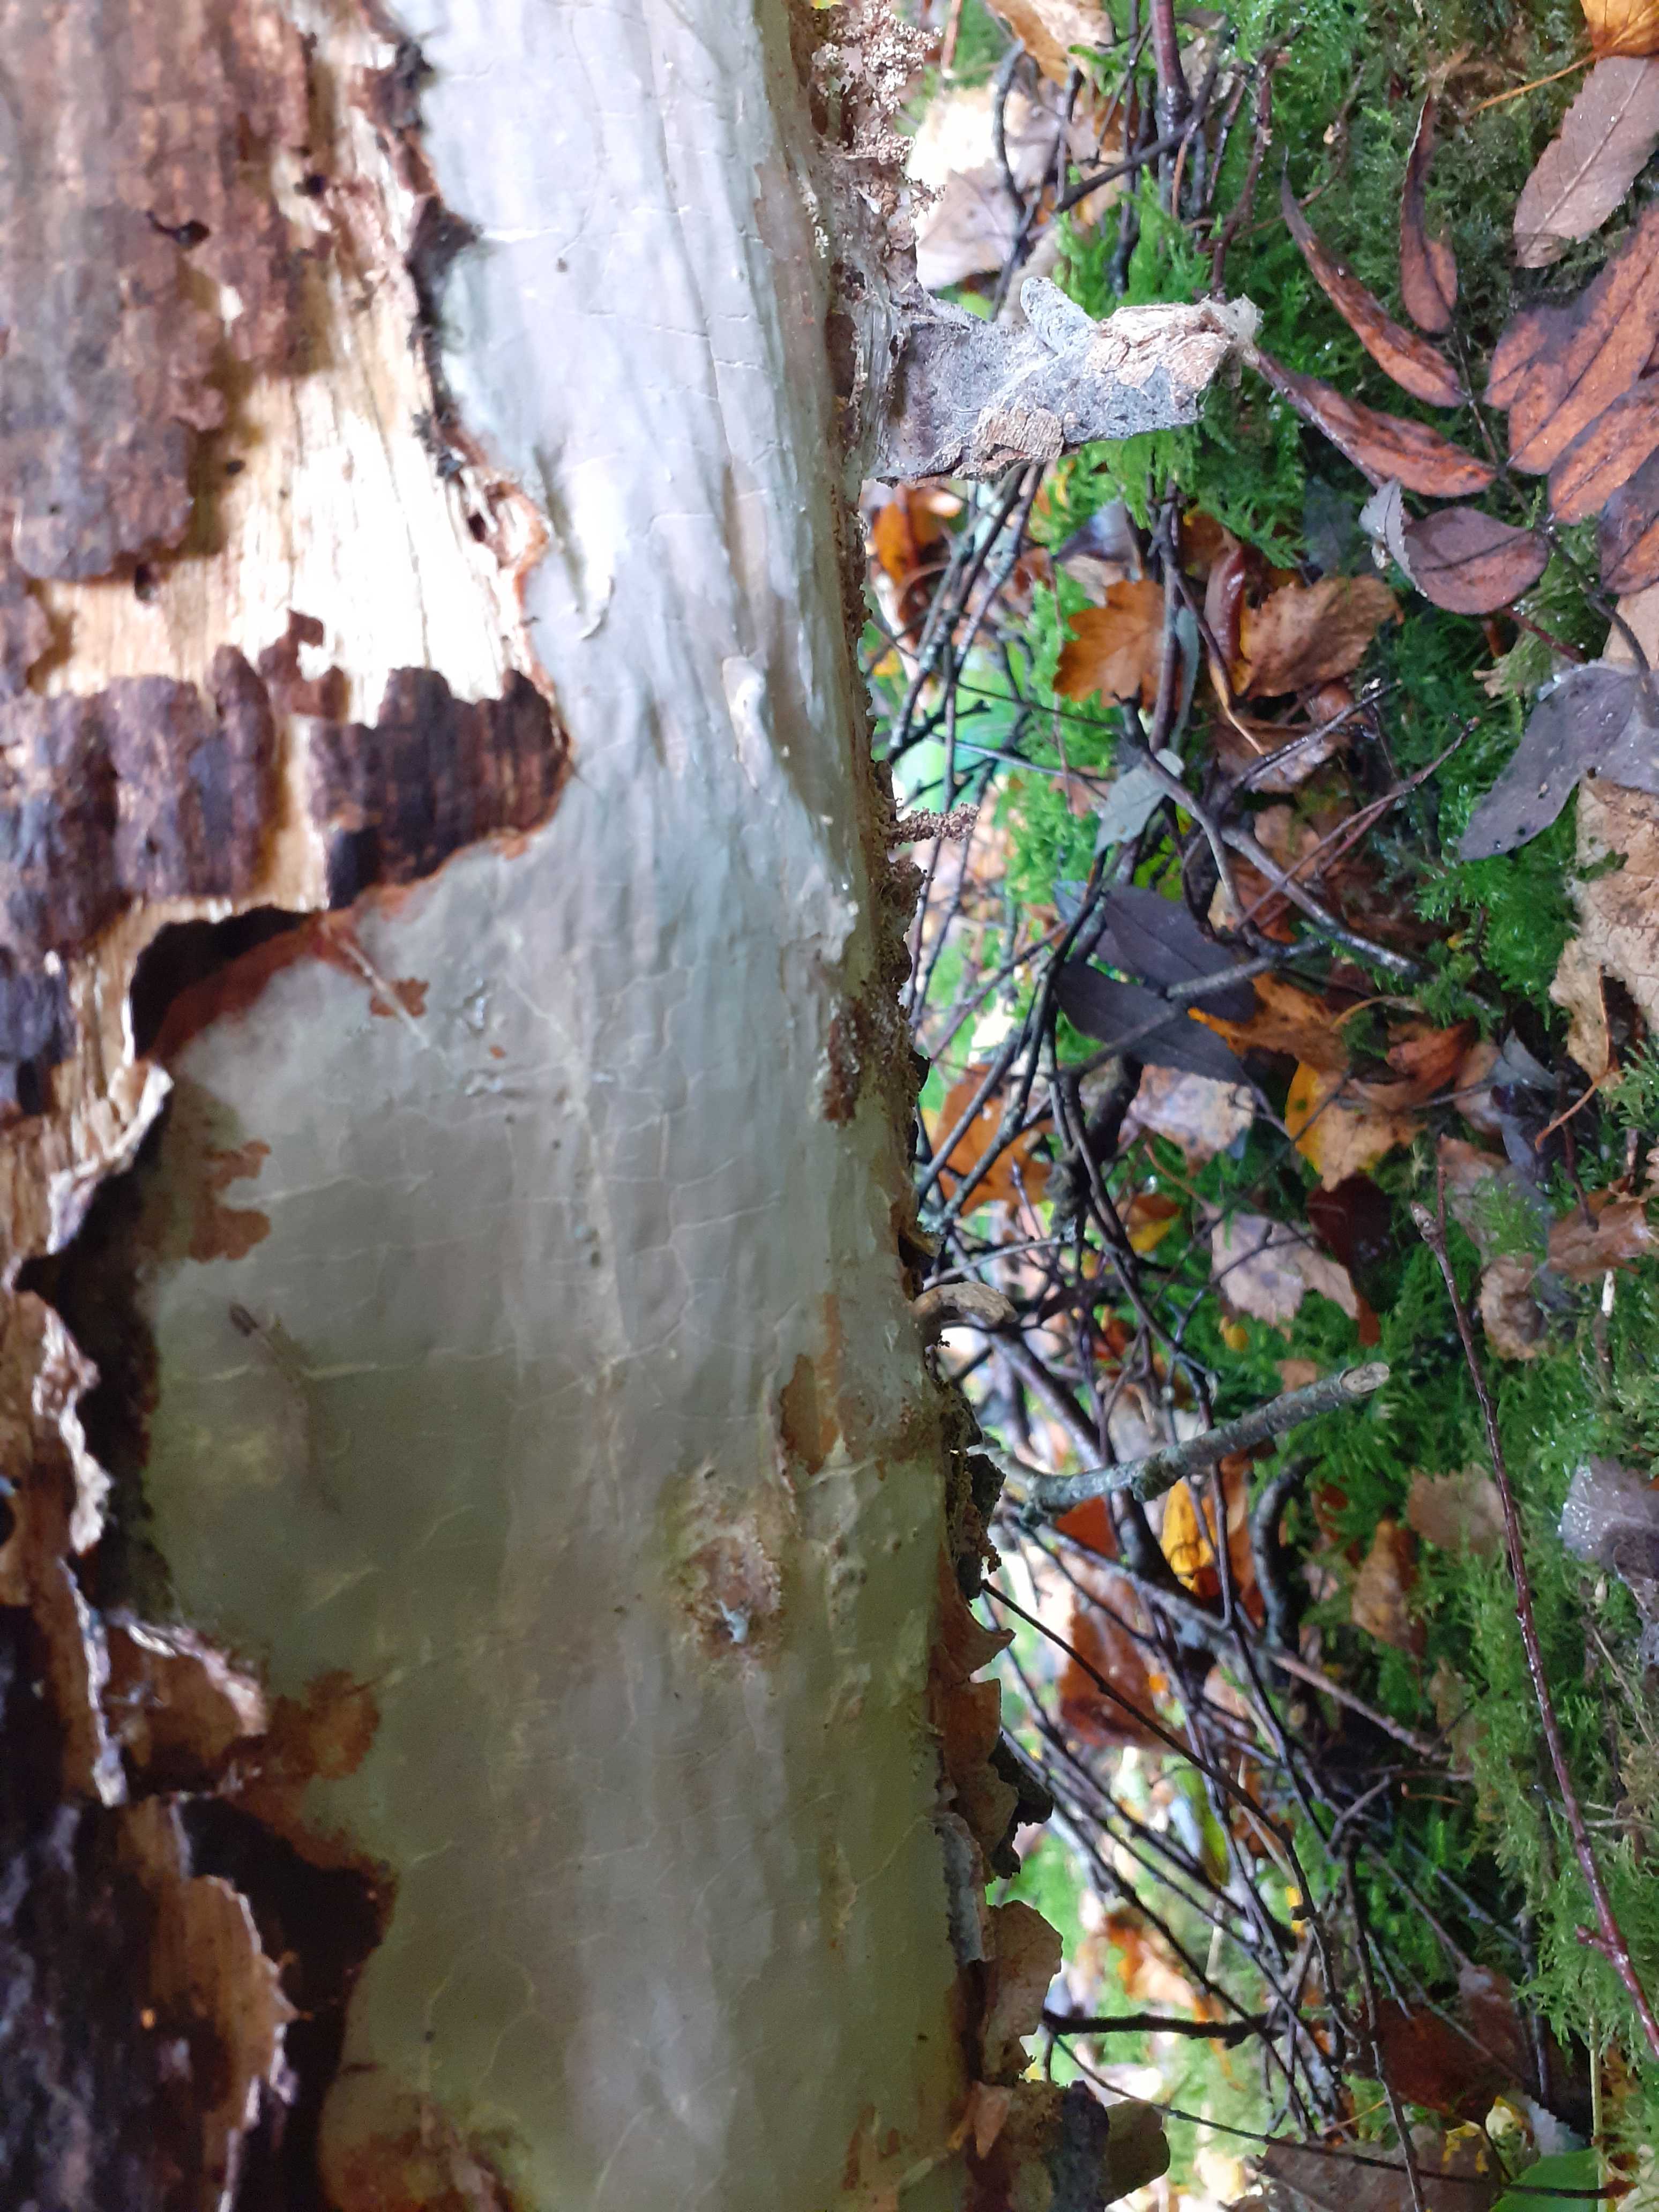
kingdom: Fungi
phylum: Basidiomycota
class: Agaricomycetes
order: Russulales
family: Peniophoraceae
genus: Scytinostroma
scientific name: Scytinostroma hemidichophyticum
